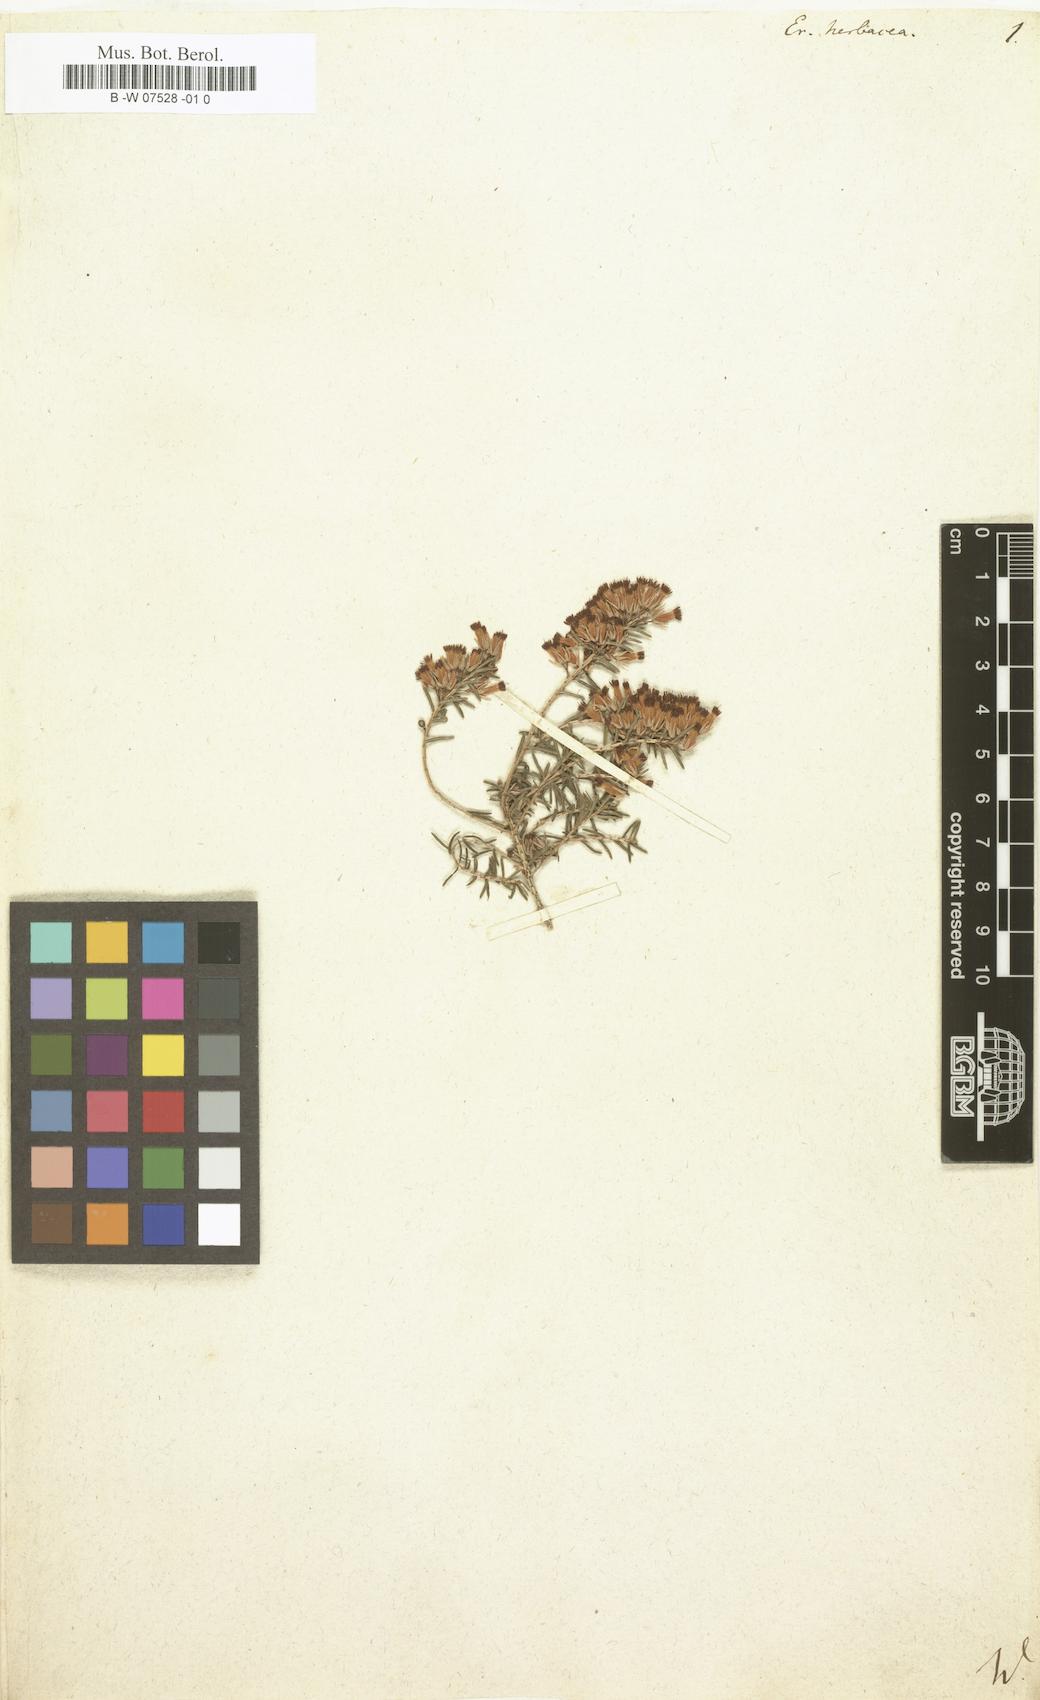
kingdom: Plantae
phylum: Tracheophyta
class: Magnoliopsida
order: Ericales
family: Ericaceae
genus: Calluna
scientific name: Calluna vulgaris
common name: Heather
